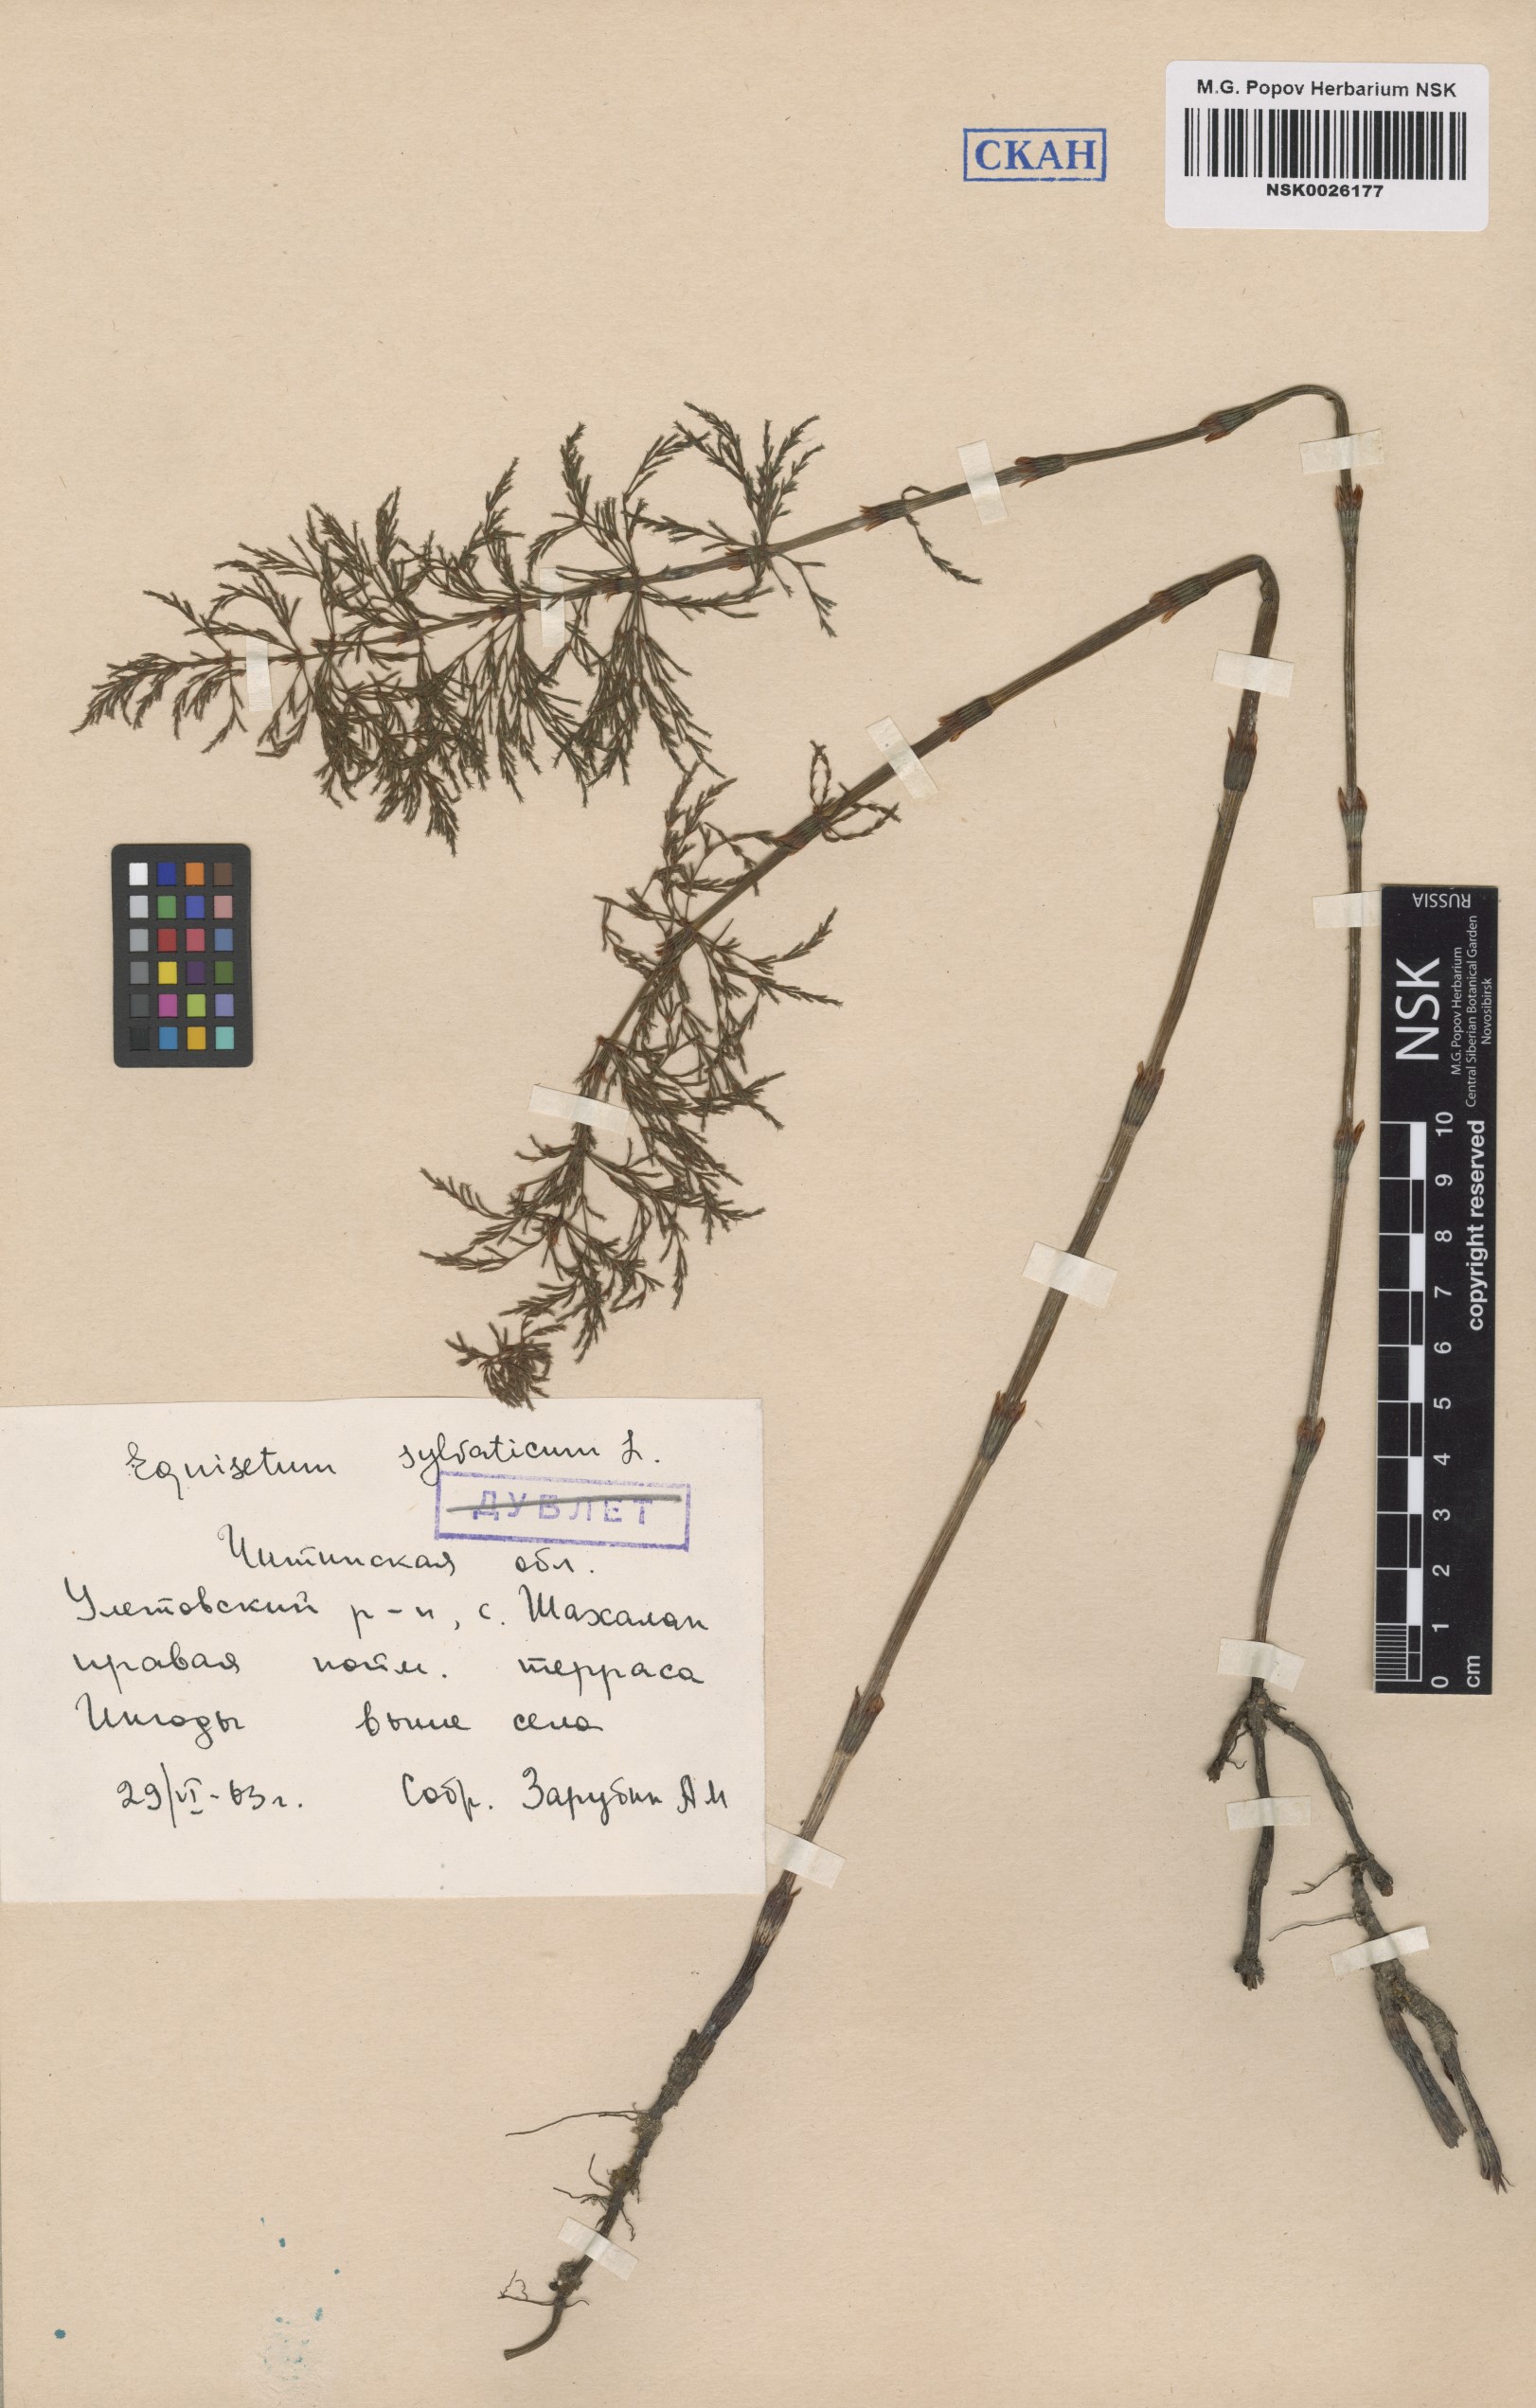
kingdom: Plantae
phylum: Tracheophyta
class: Polypodiopsida
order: Equisetales
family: Equisetaceae
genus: Equisetum
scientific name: Equisetum sylvaticum
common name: Wood horsetail
